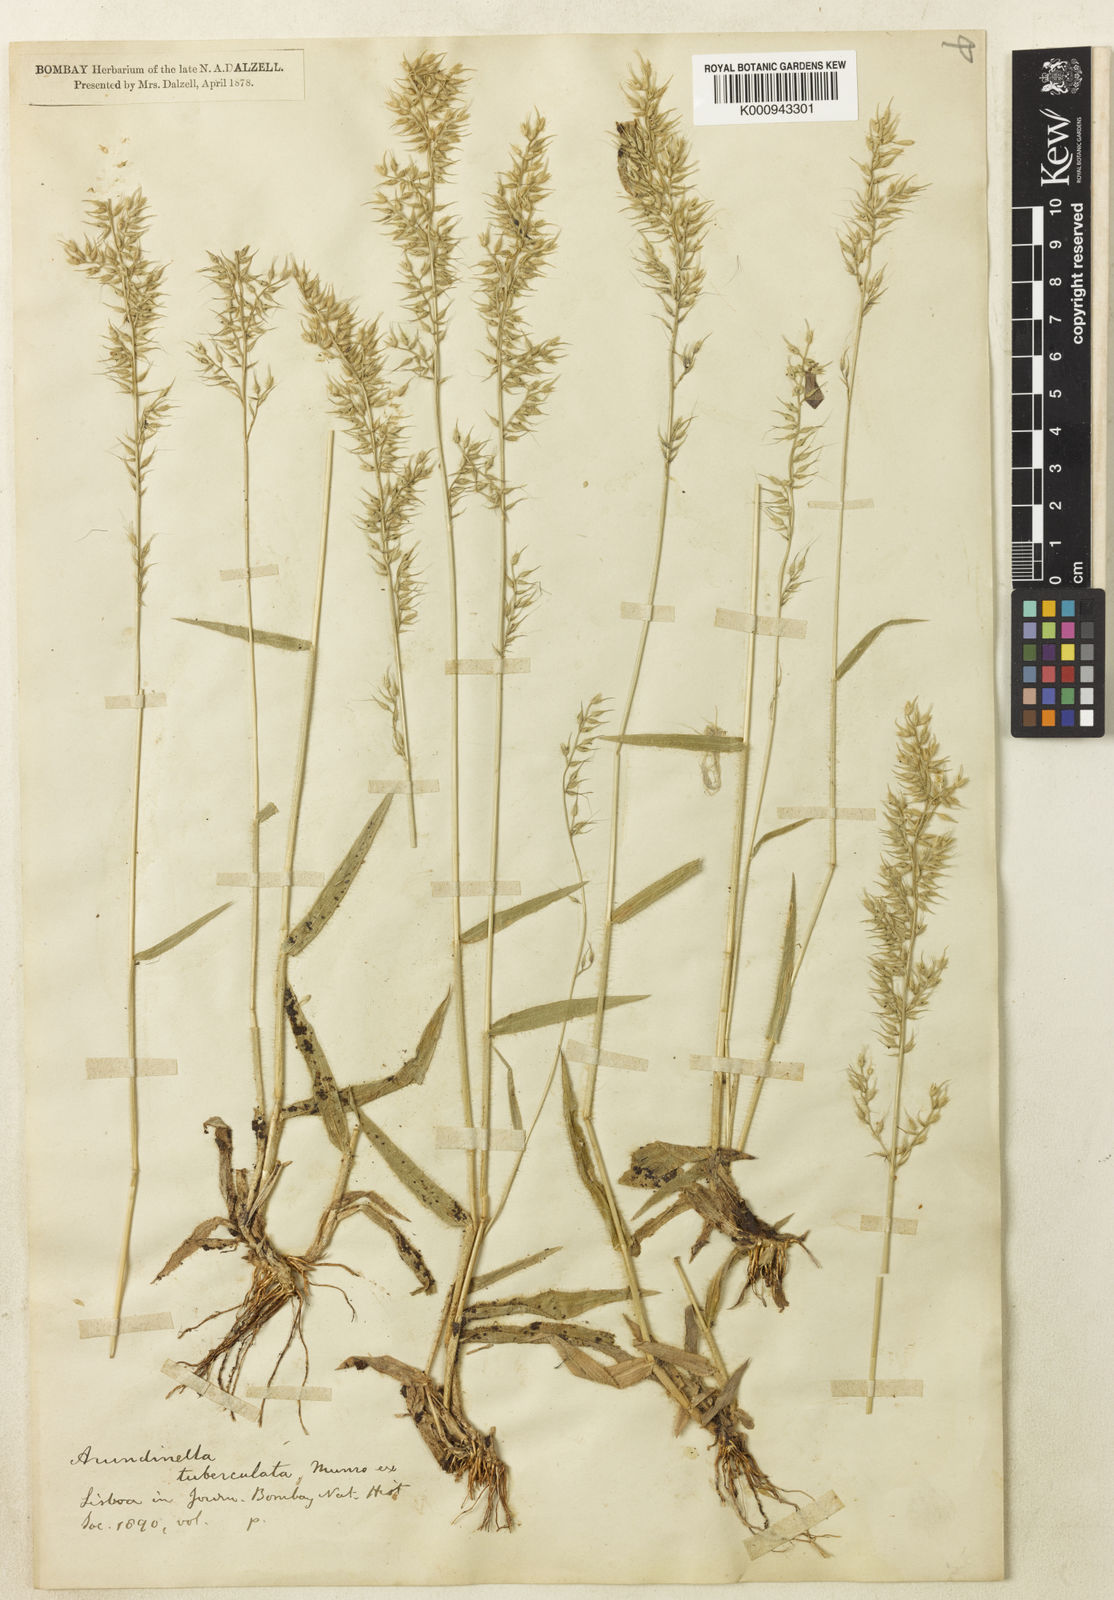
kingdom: Plantae
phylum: Tracheophyta
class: Liliopsida
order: Poales
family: Poaceae
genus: Arundinella
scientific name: Arundinella tuberculata
